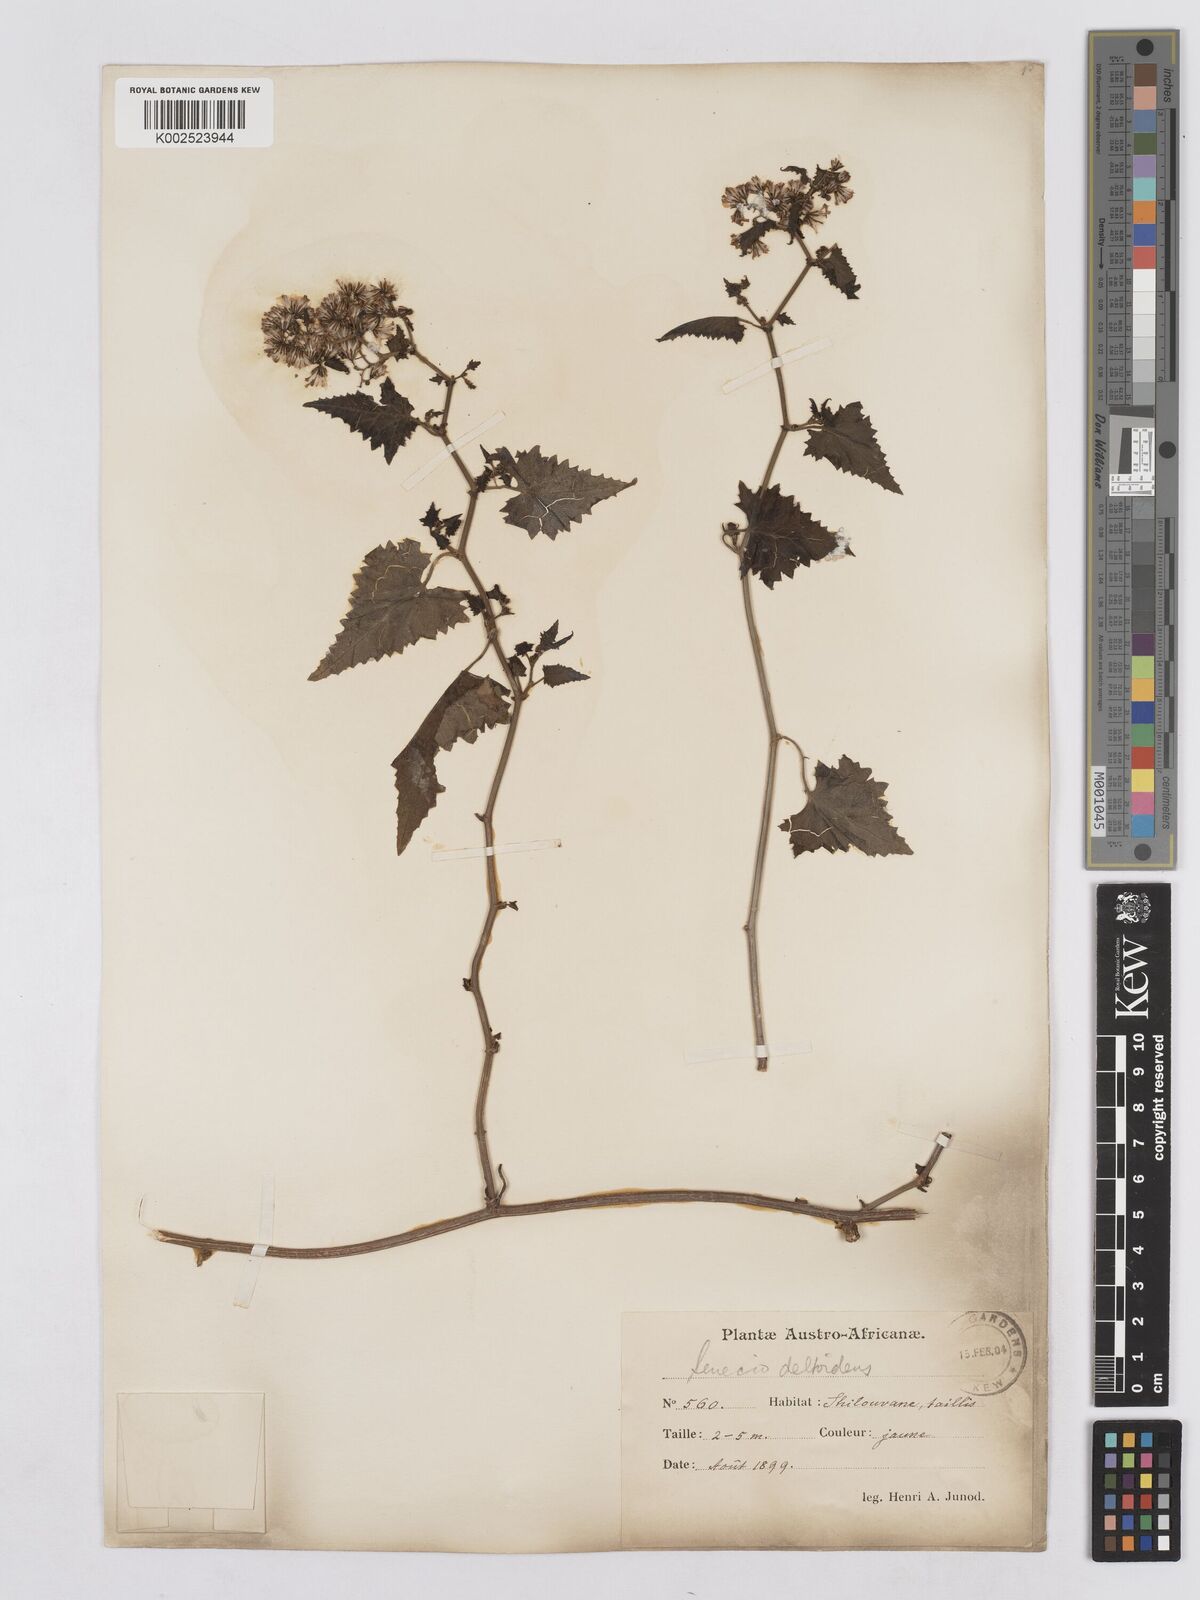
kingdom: Plantae
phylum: Tracheophyta
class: Magnoliopsida
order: Asterales
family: Asteraceae
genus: Senecio
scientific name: Senecio deltoideus
